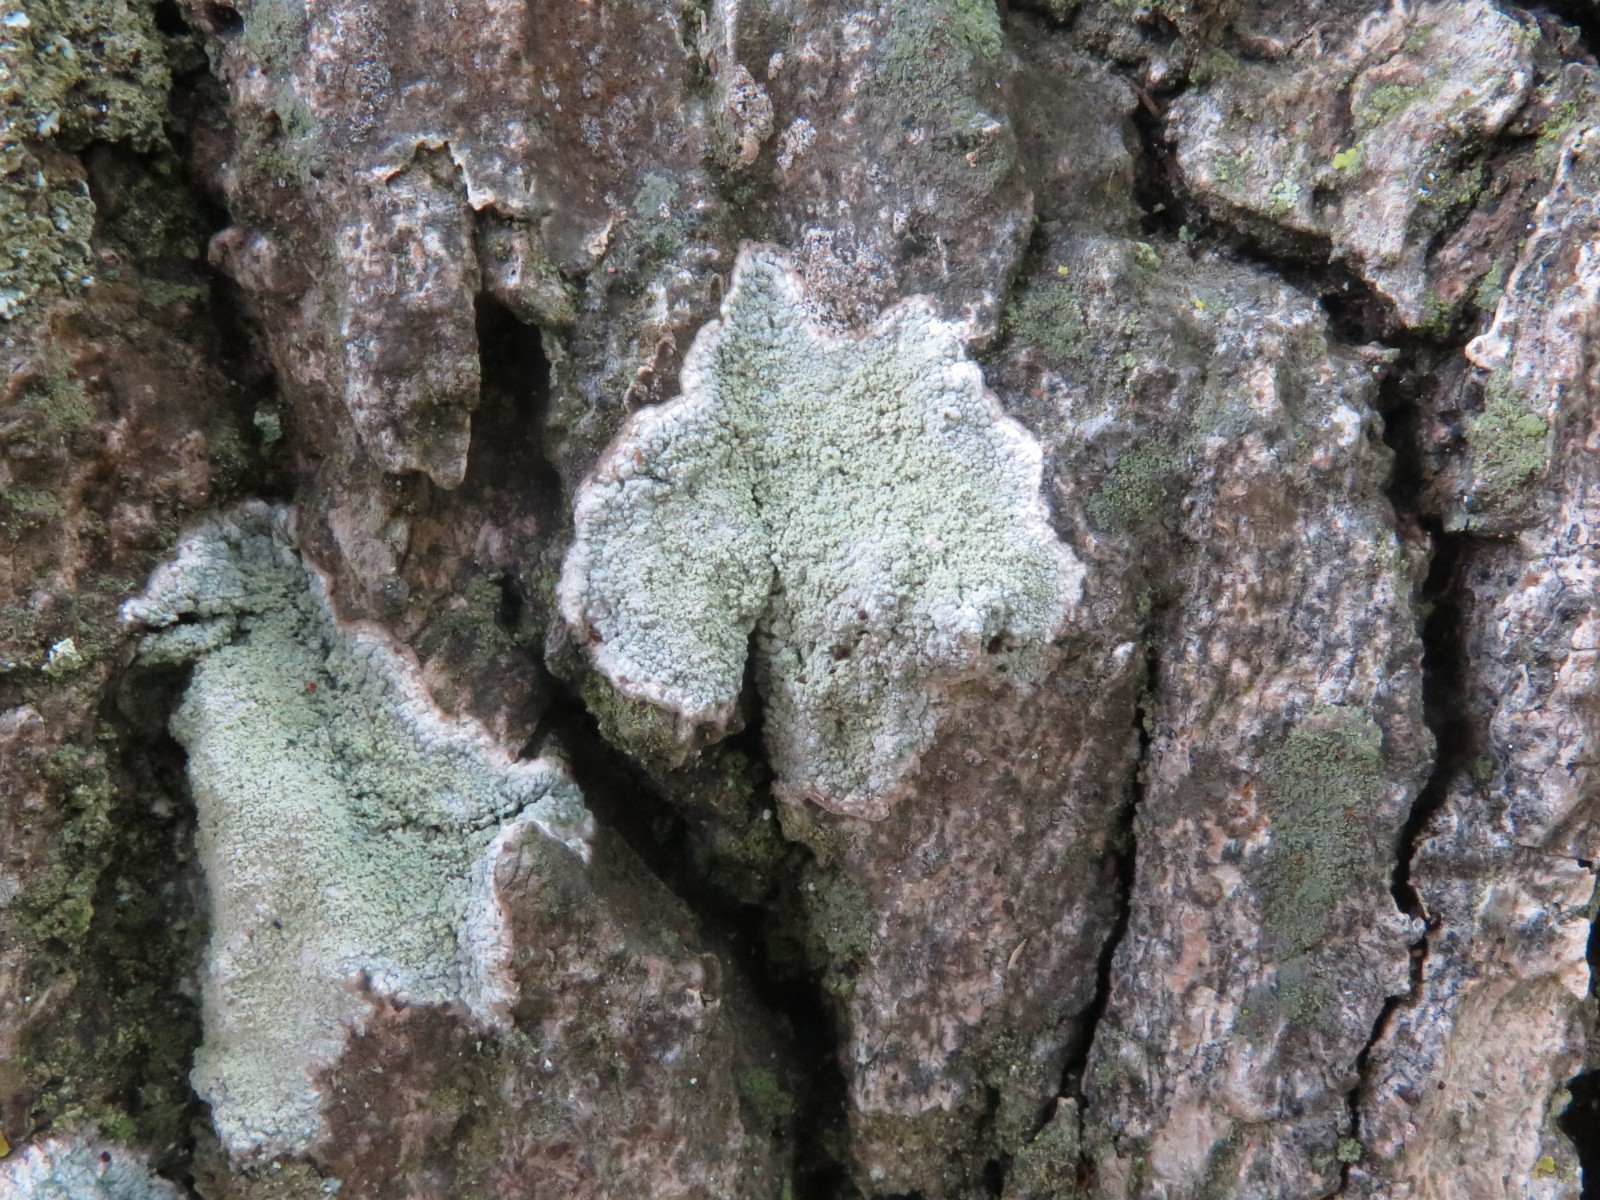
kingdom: Fungi
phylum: Ascomycota
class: Lecanoromycetes
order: Lecanorales
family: Haematommataceae
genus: Haematomma
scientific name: Haematomma ochroleucum
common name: gul trådkantlav
